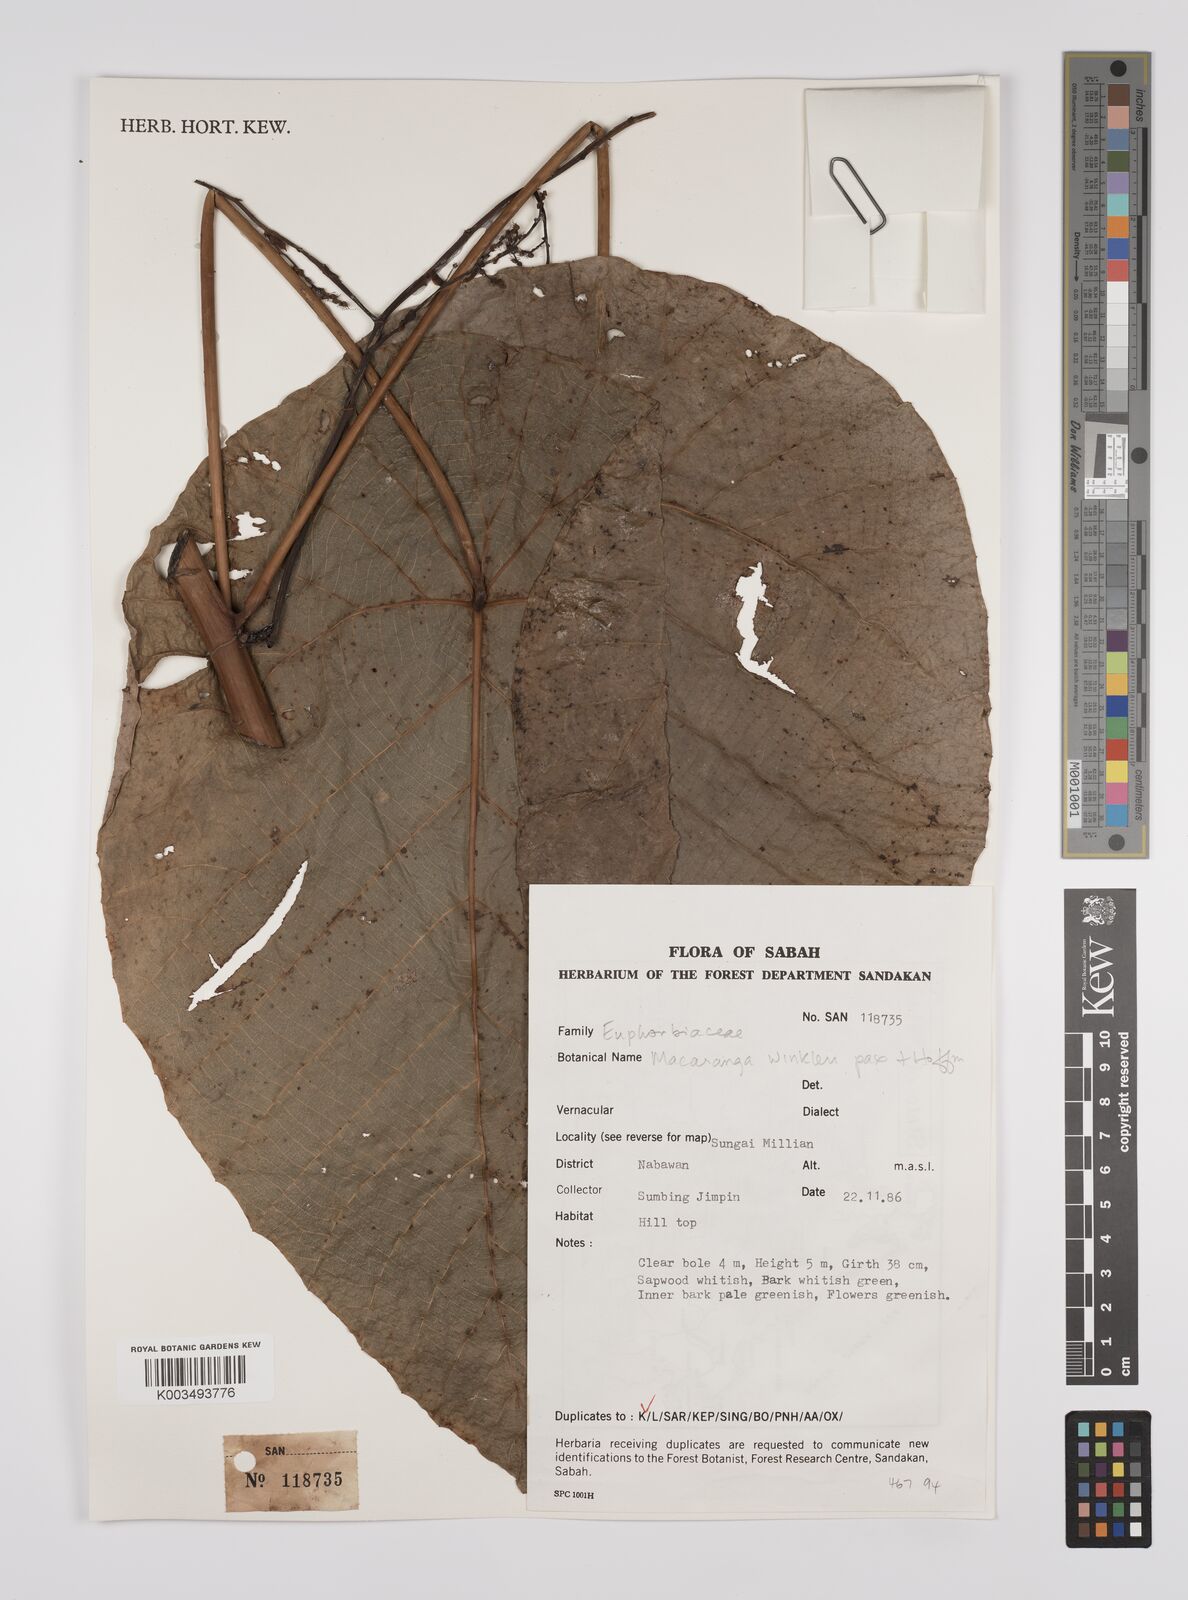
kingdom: Plantae
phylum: Tracheophyta
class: Magnoliopsida
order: Malpighiales
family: Euphorbiaceae
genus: Macaranga
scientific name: Macaranga winkleri
